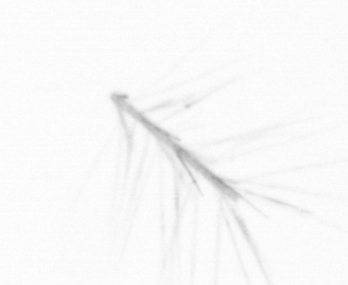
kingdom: Chromista
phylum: Ochrophyta
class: Bacillariophyceae
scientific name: Bacillariophyceae
